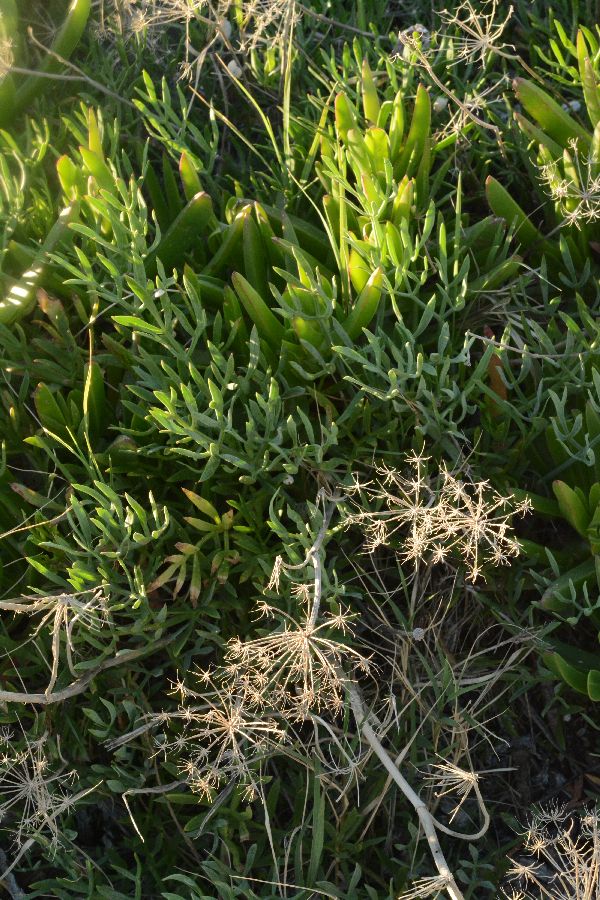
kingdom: Plantae
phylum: Tracheophyta
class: Magnoliopsida
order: Apiales
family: Apiaceae
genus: Crithmum
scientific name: Crithmum maritimum
